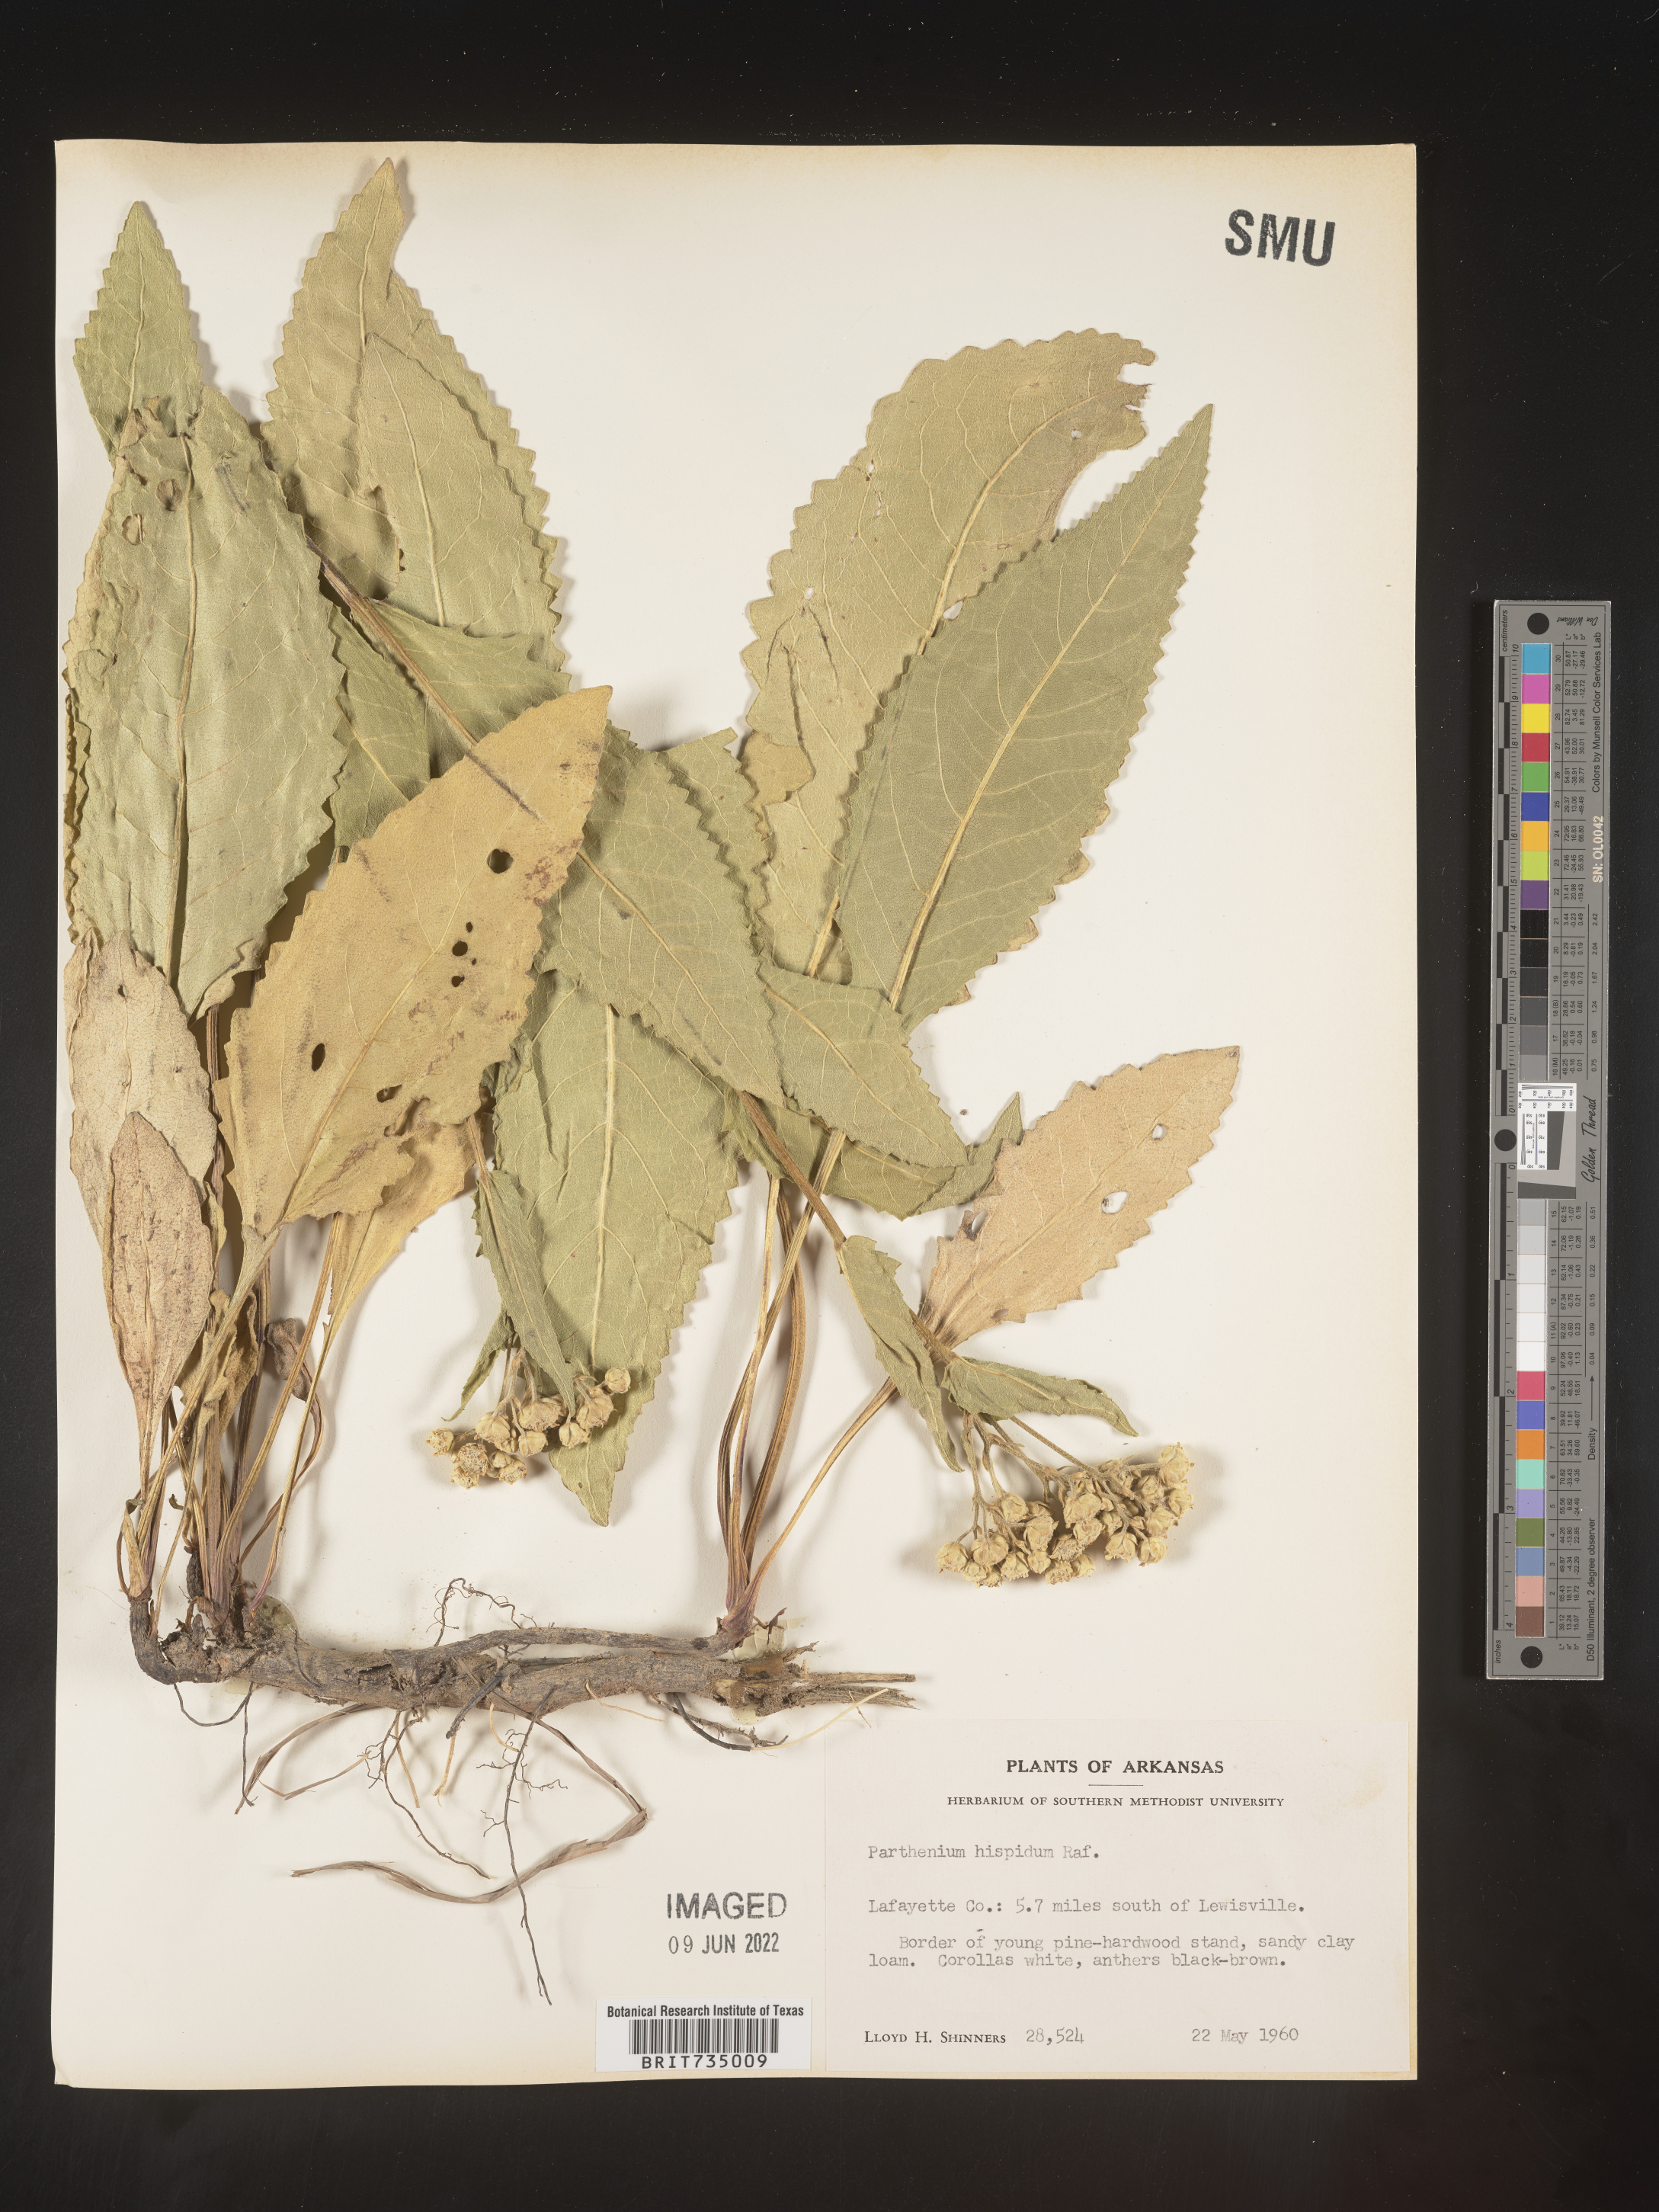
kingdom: Plantae
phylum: Tracheophyta
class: Magnoliopsida
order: Asterales
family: Asteraceae
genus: Parthenium
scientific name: Parthenium hispidum
